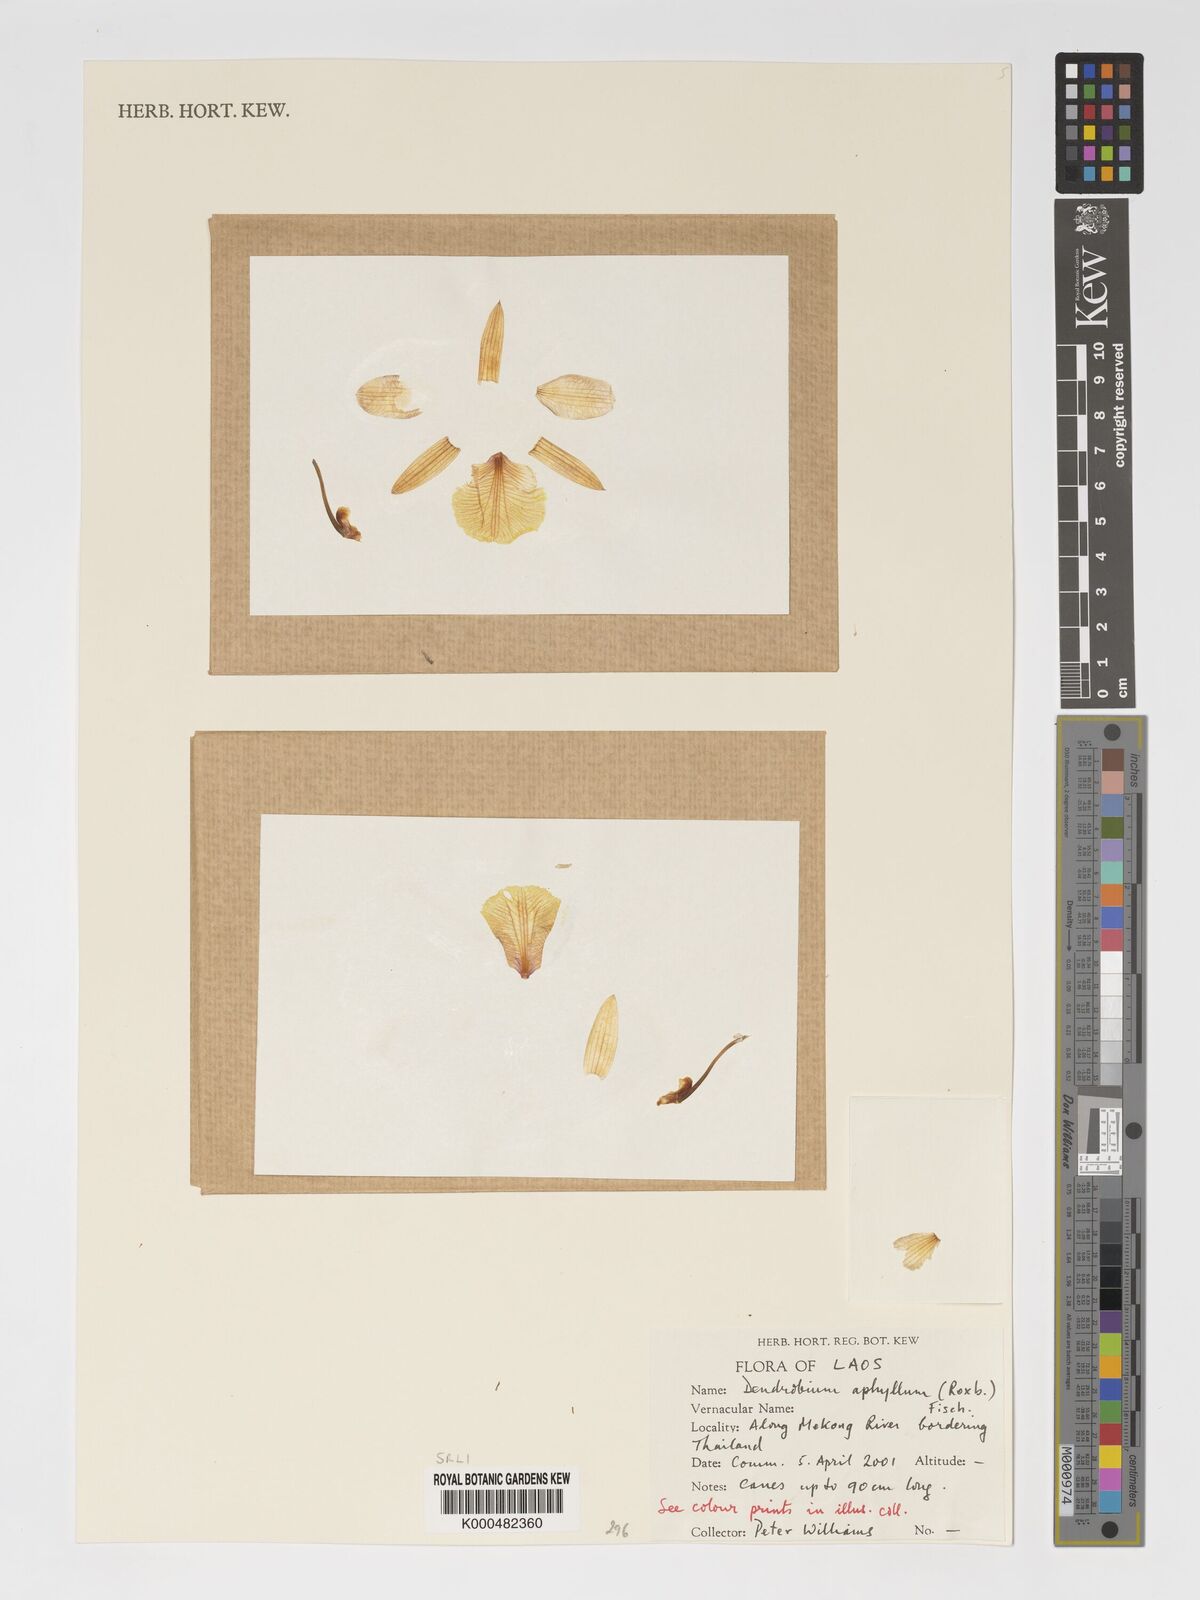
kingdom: Plantae
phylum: Tracheophyta
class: Liliopsida
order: Asparagales
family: Orchidaceae
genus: Dendrobium
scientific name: Dendrobium macrostachyum
